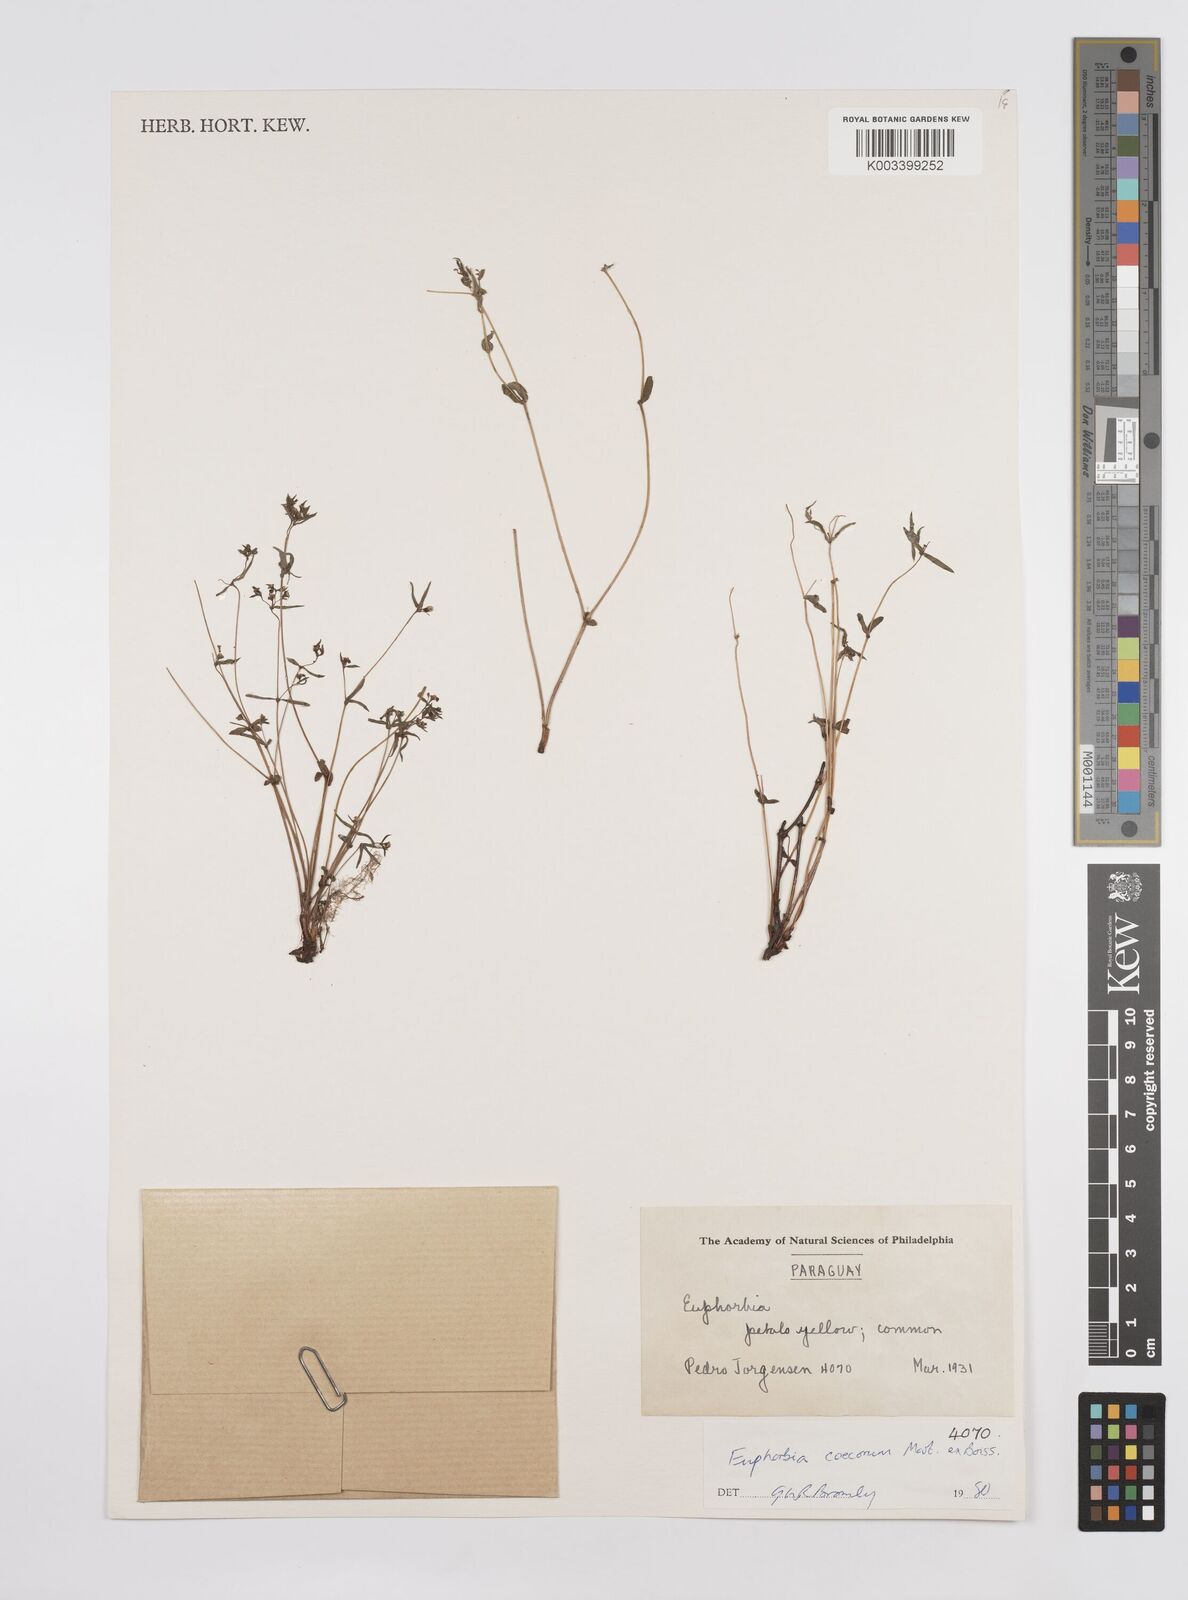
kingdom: Plantae
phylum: Tracheophyta
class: Magnoliopsida
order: Malpighiales
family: Euphorbiaceae
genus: Euphorbia
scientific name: Euphorbia potentilloides
